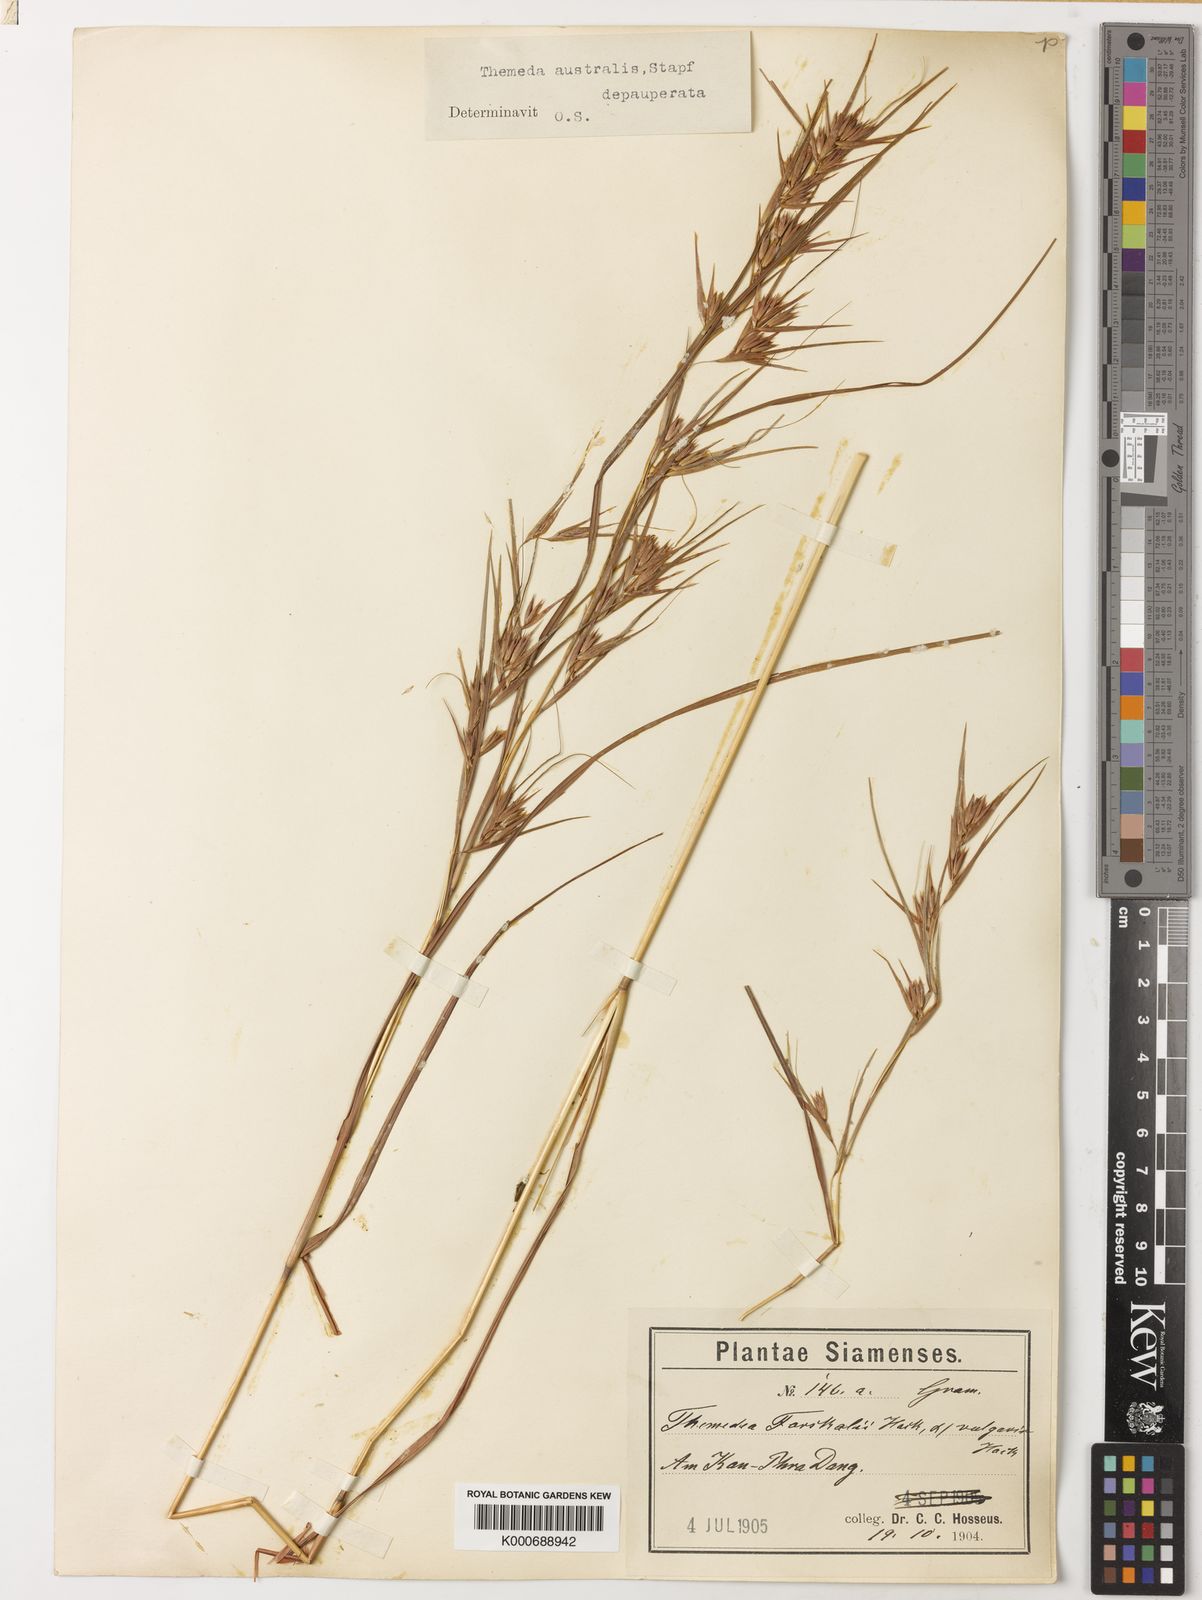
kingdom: Plantae
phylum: Tracheophyta
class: Liliopsida
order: Poales
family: Poaceae
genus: Themeda
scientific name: Themeda triandra
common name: Kangaroo grass
